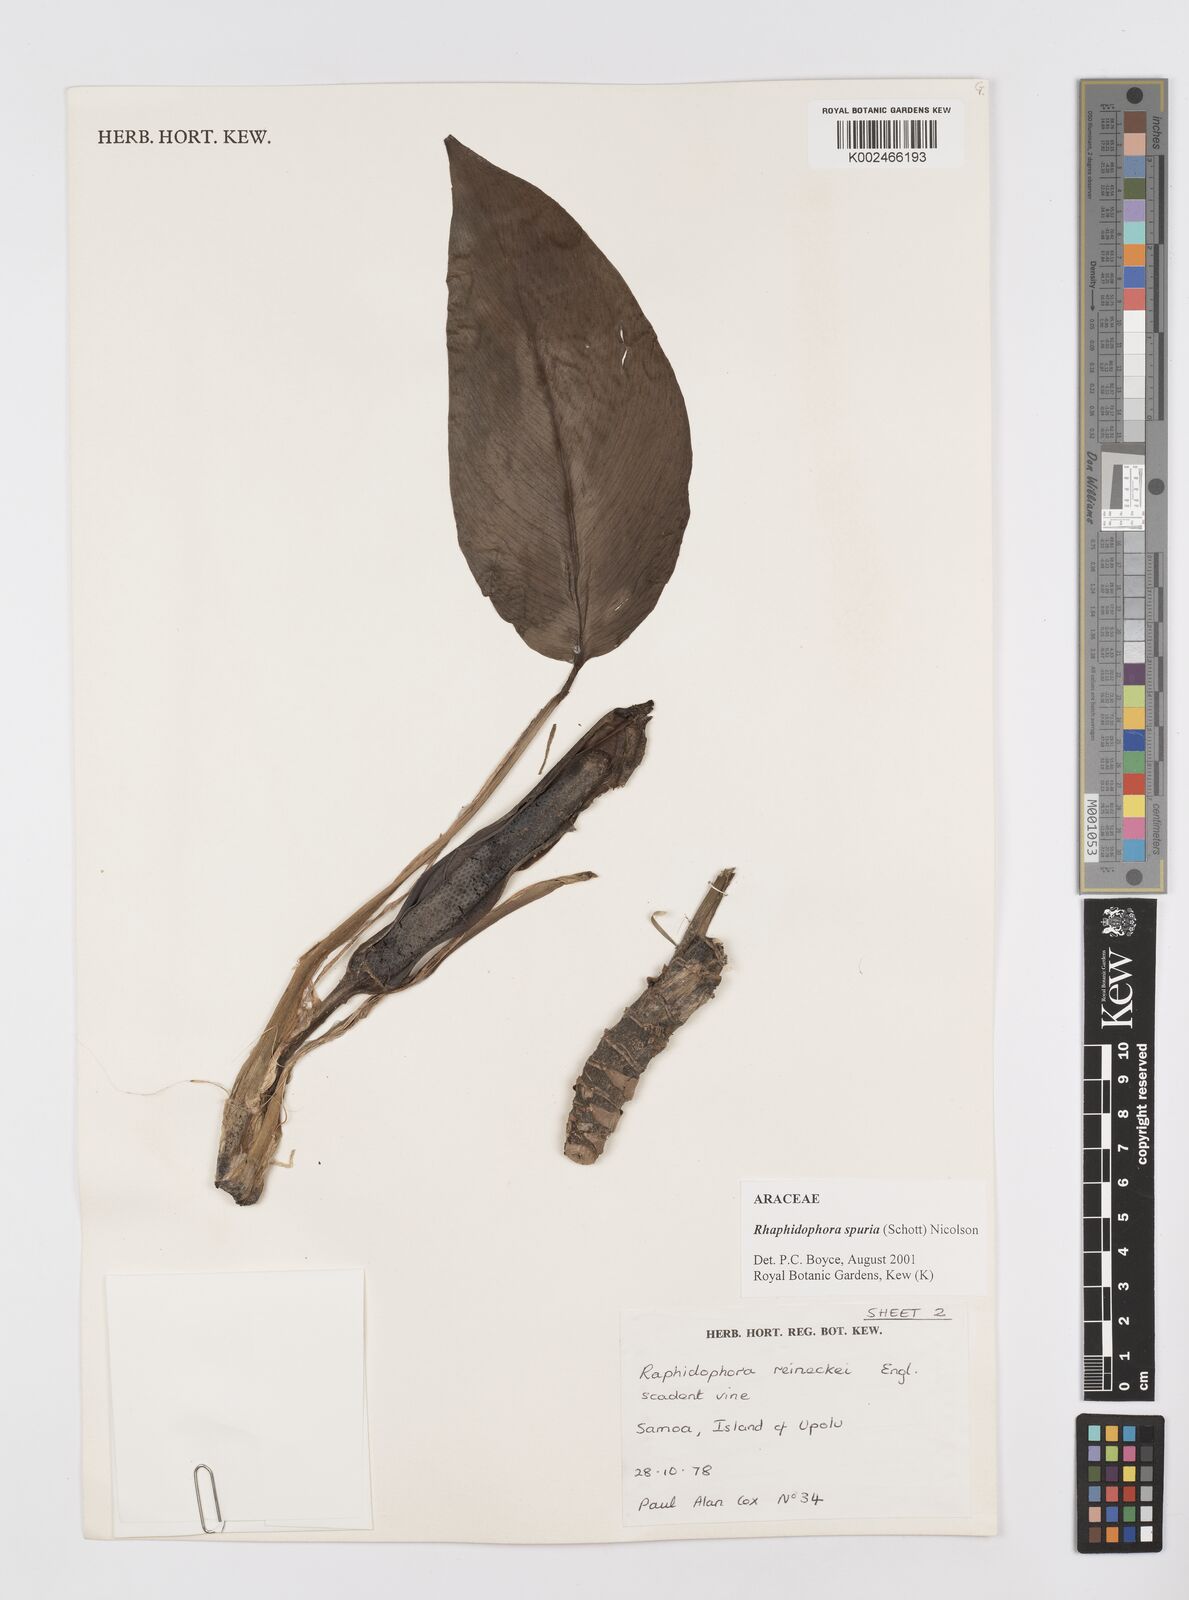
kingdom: Plantae
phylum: Tracheophyta
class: Liliopsida
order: Alismatales
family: Araceae
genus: Rhaphidophora
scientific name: Rhaphidophora spuria
